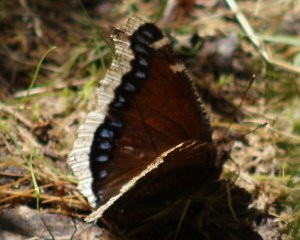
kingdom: Animalia
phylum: Arthropoda
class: Insecta
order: Lepidoptera
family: Nymphalidae
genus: Nymphalis
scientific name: Nymphalis antiopa
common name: Mourning Cloak
